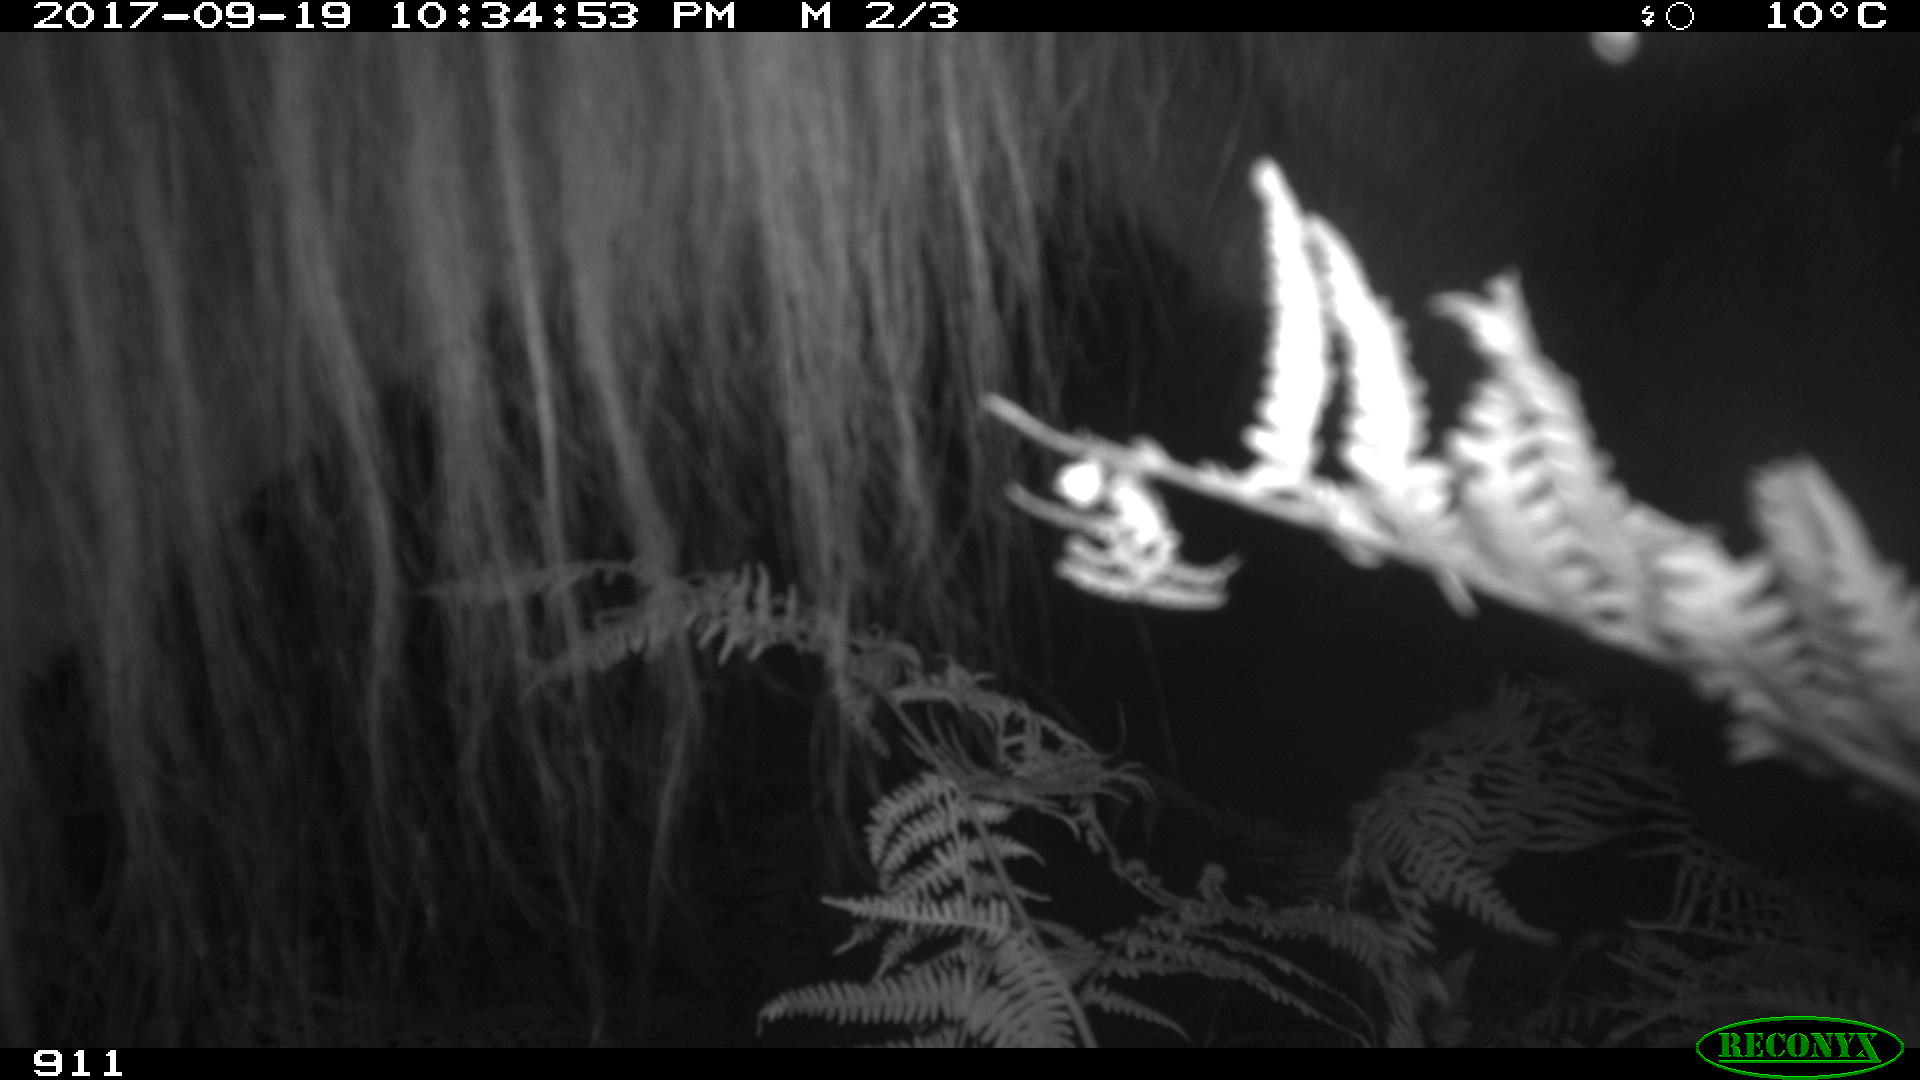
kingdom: Animalia
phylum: Chordata
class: Mammalia
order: Perissodactyla
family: Equidae
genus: Equus
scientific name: Equus caballus
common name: Horse
